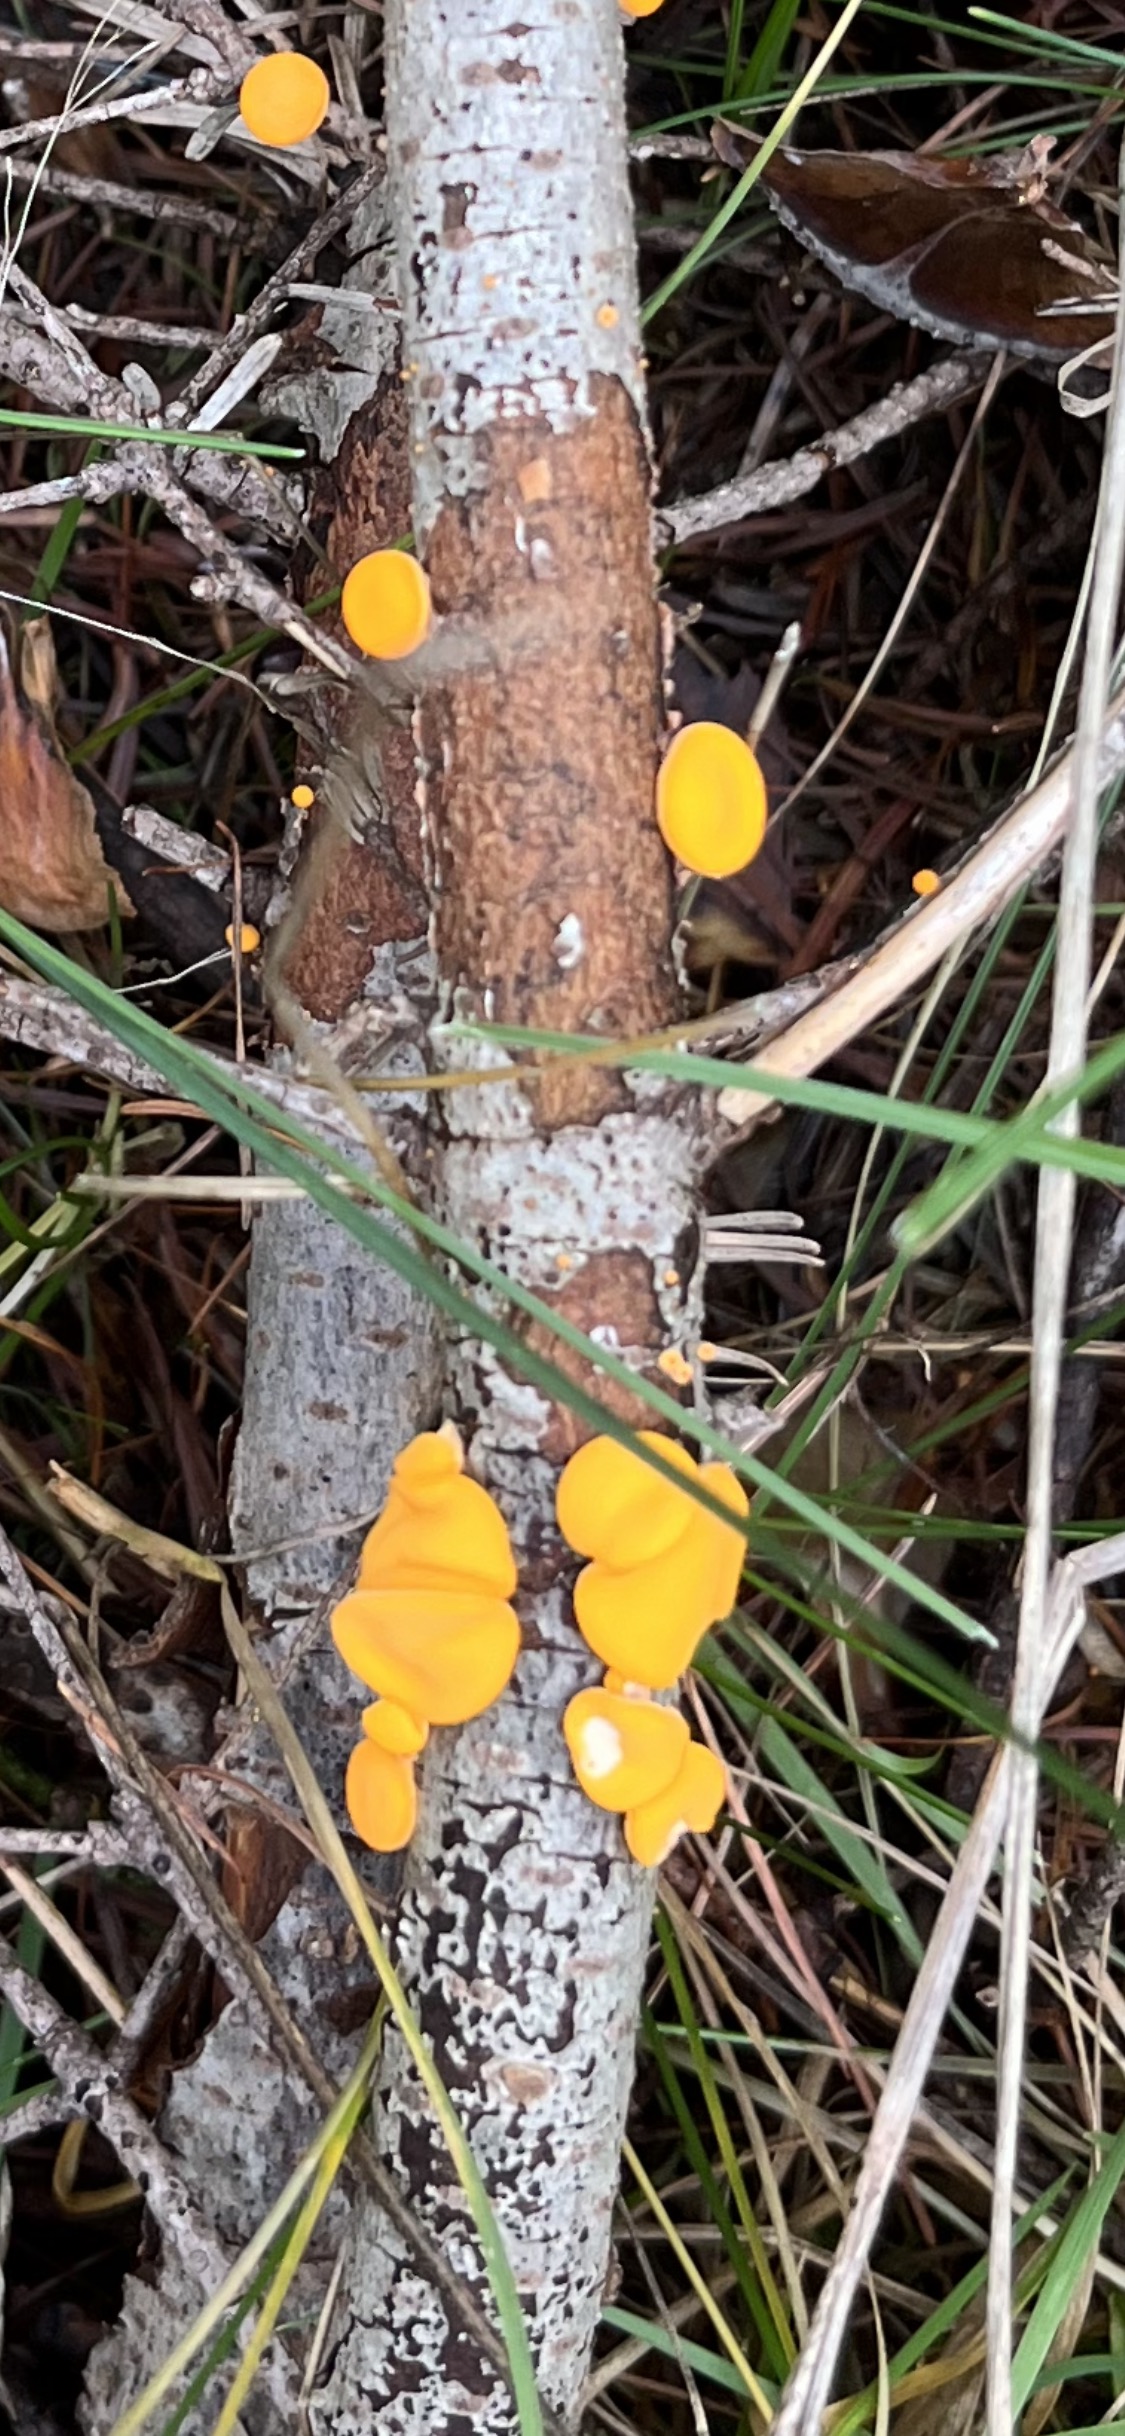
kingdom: Fungi
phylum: Ascomycota
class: Pezizomycetes
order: Pezizales
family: Sarcoscyphaceae
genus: Pithya
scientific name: Pithya vulgaris
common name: stor dukatbæger
